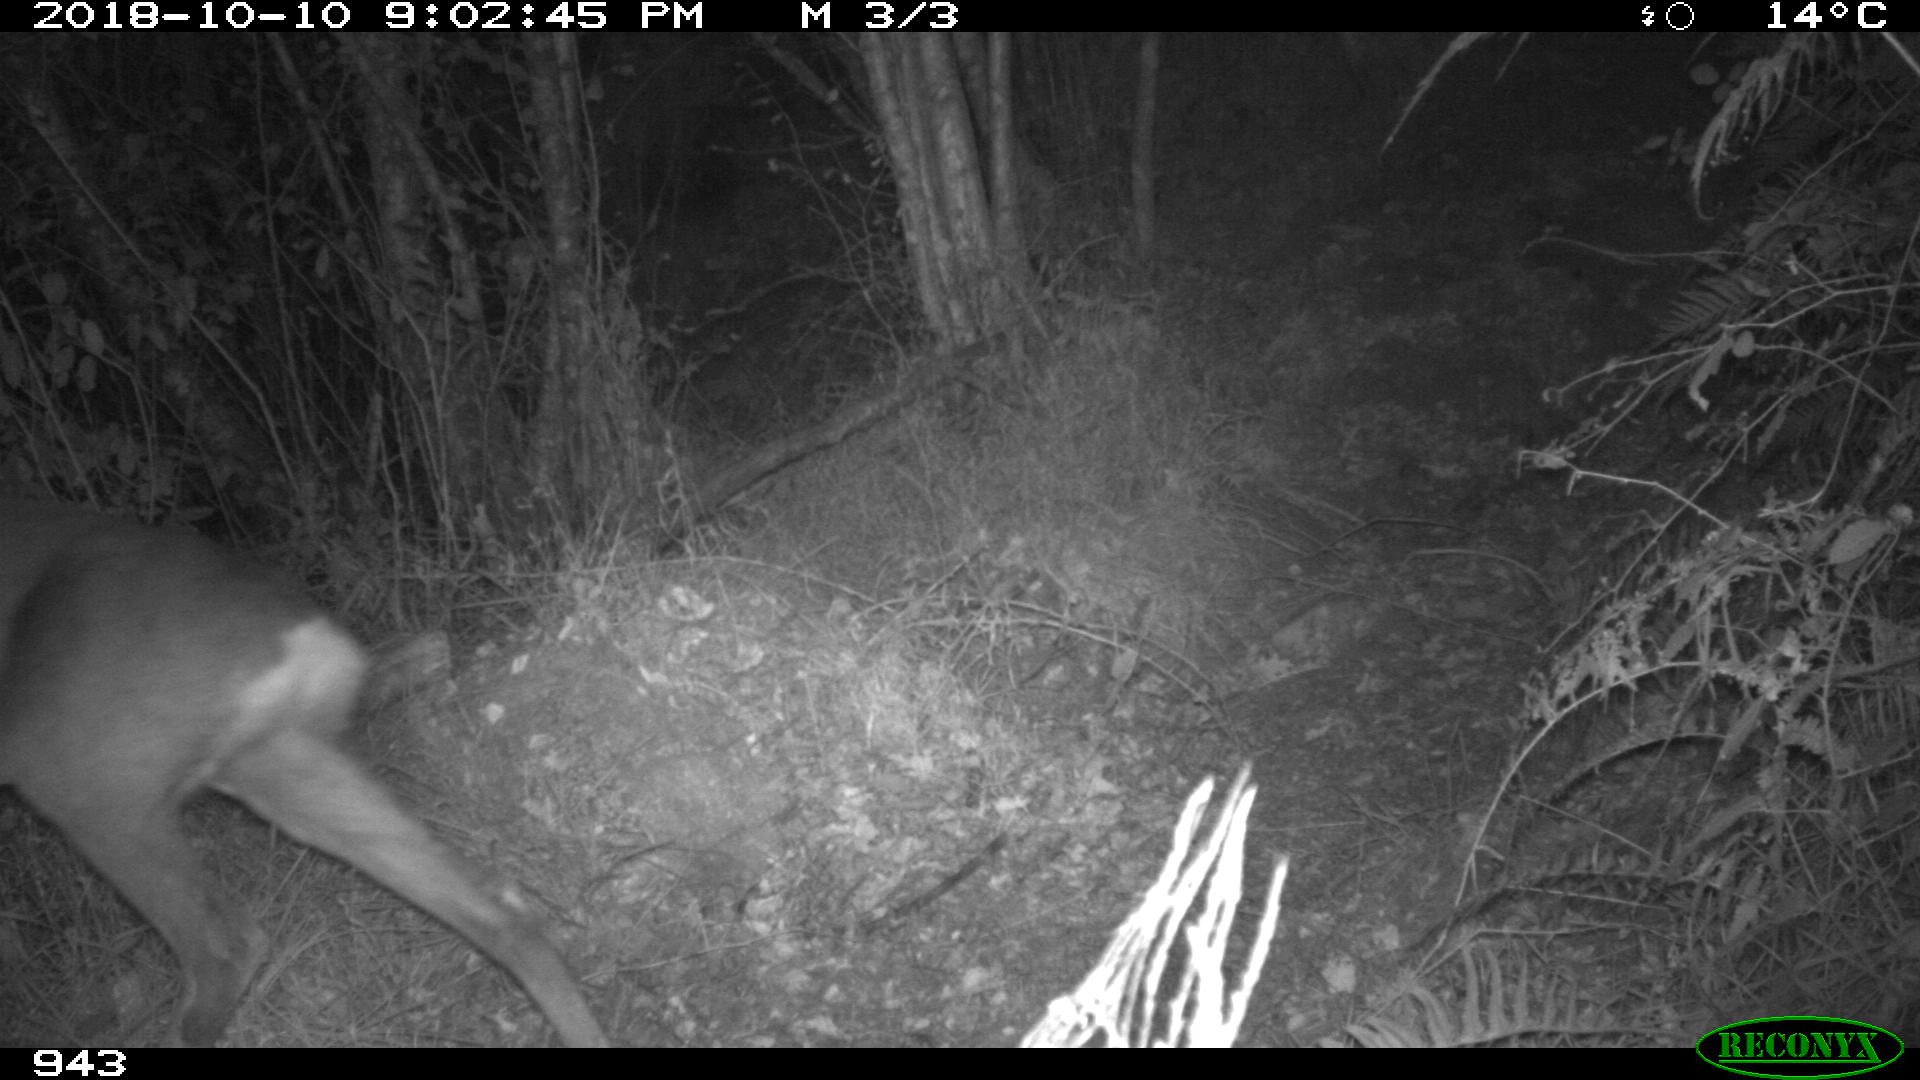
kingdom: Animalia
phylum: Chordata
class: Mammalia
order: Artiodactyla
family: Cervidae
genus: Capreolus
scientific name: Capreolus capreolus
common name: Western roe deer
